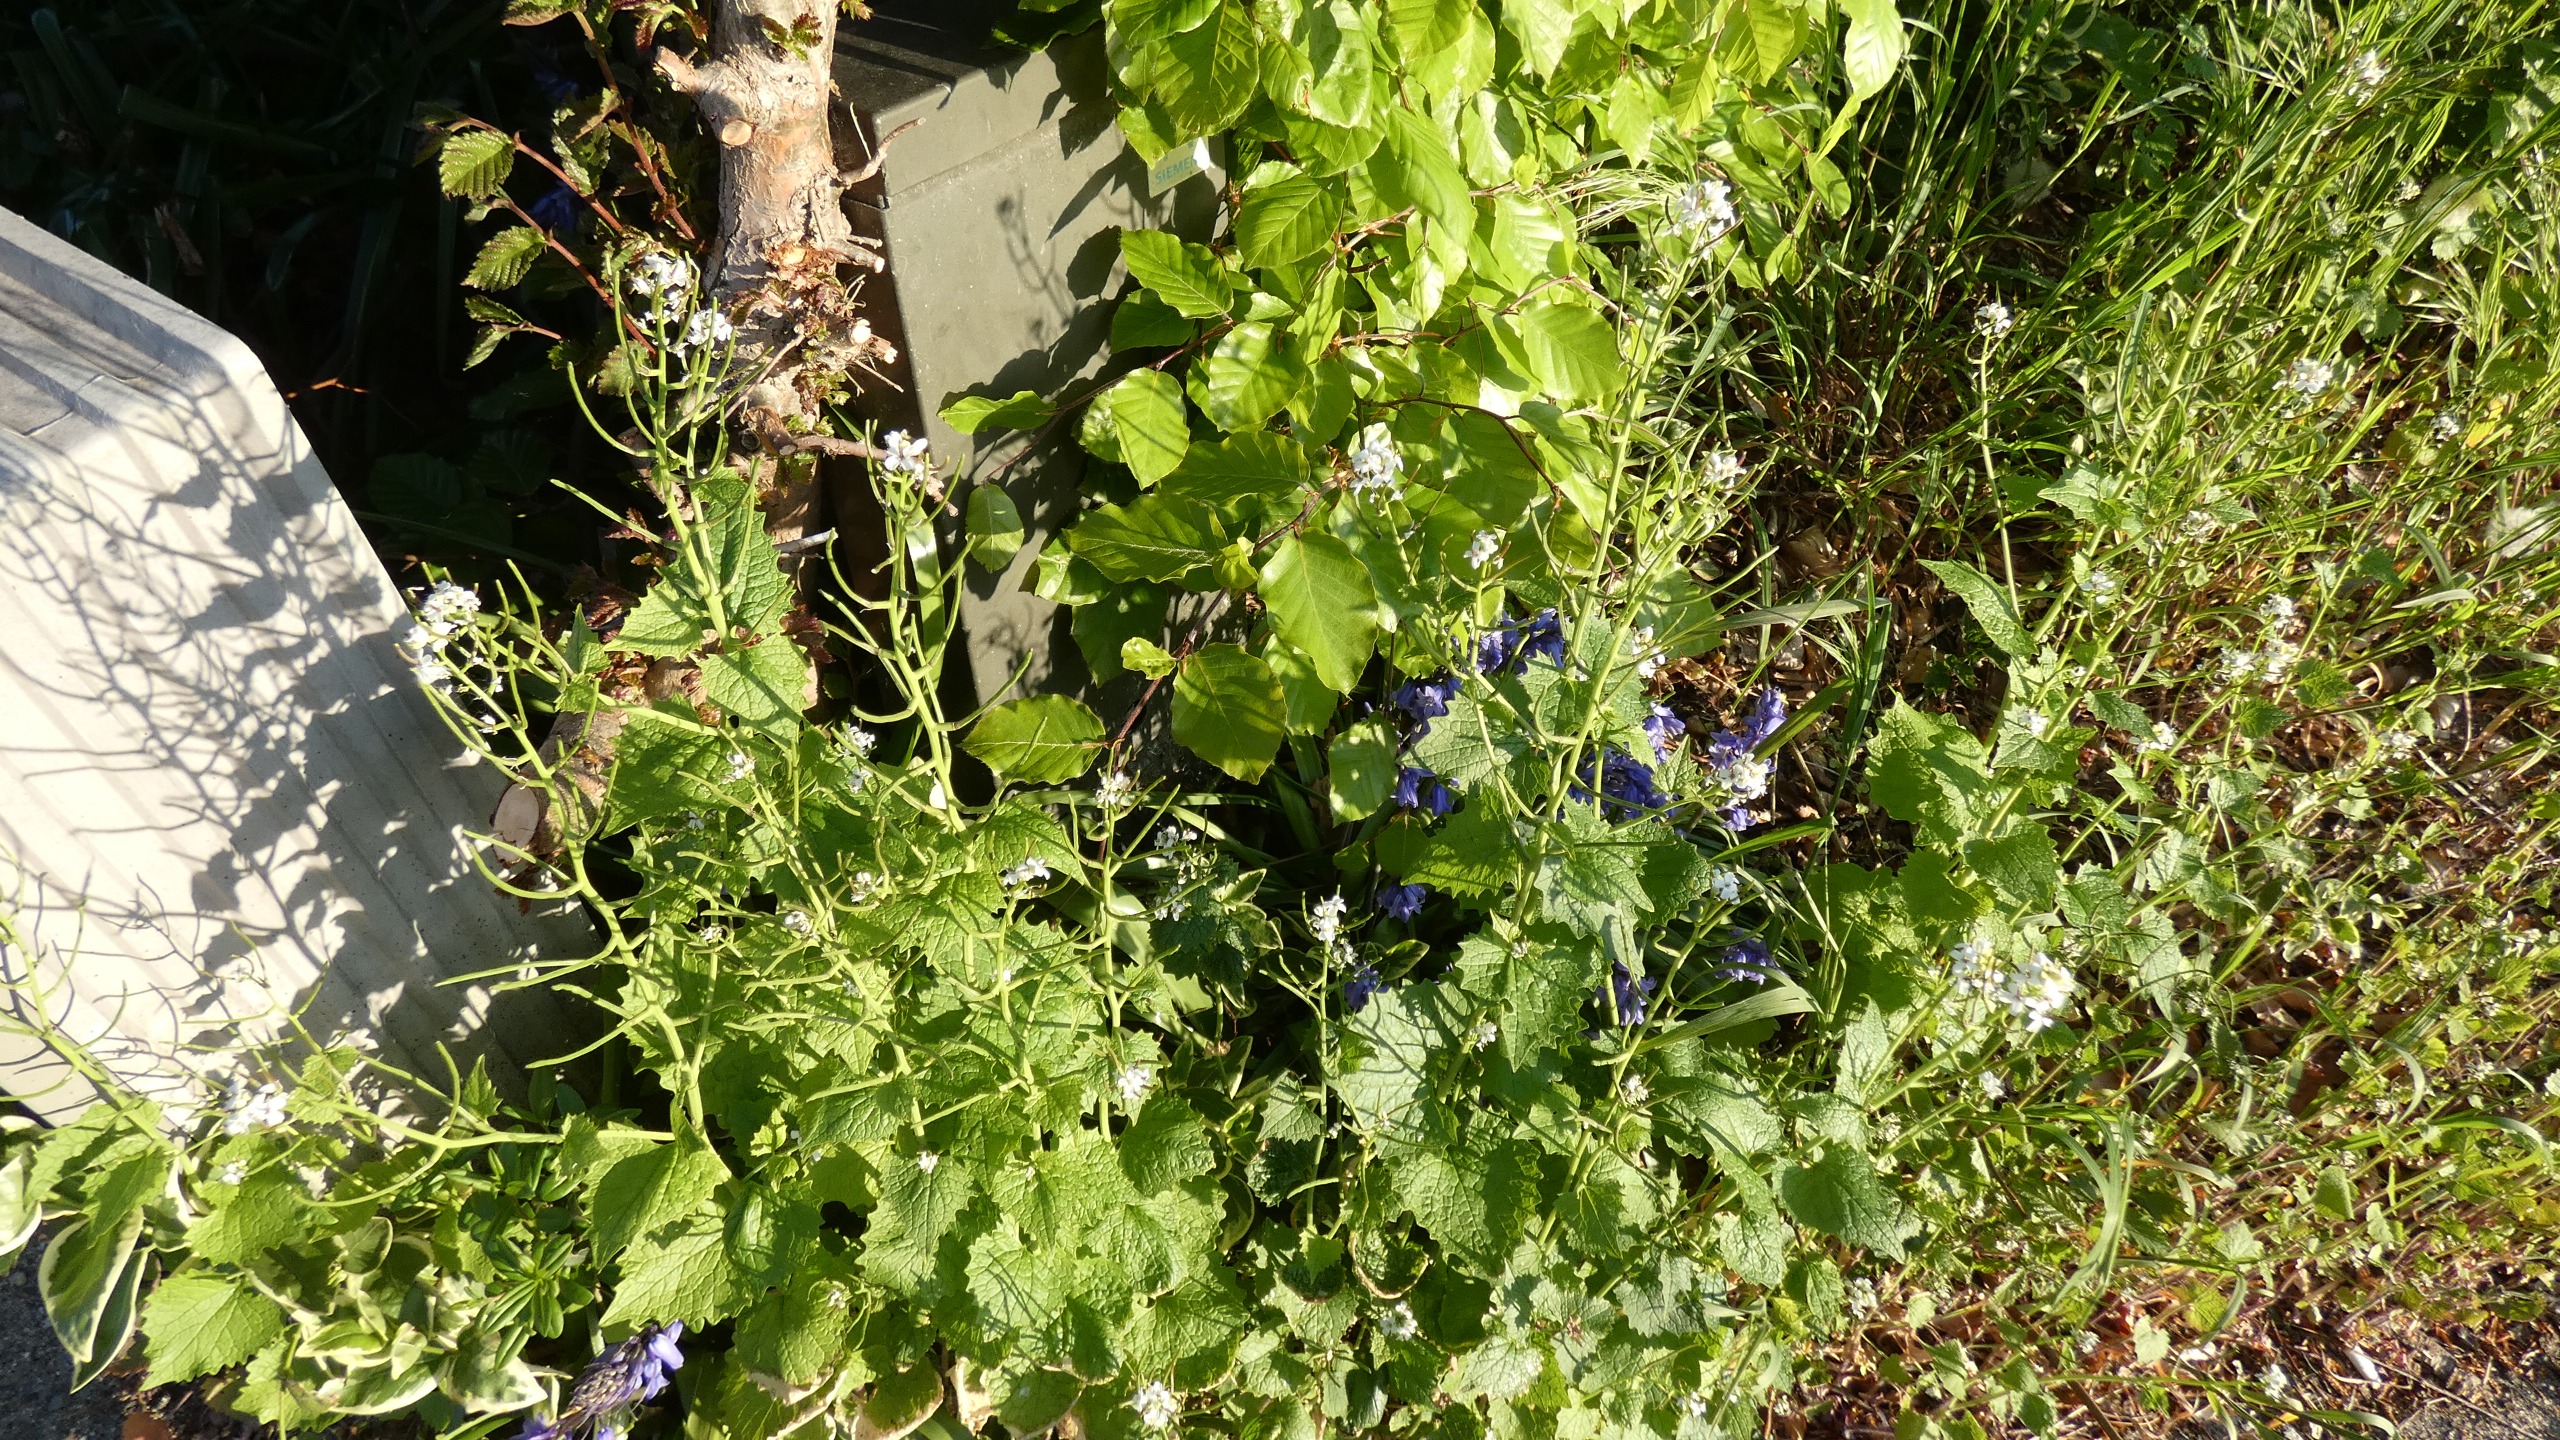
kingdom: Plantae
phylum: Tracheophyta
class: Magnoliopsida
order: Brassicales
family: Brassicaceae
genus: Alliaria
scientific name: Alliaria petiolata
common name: Løgkarse
